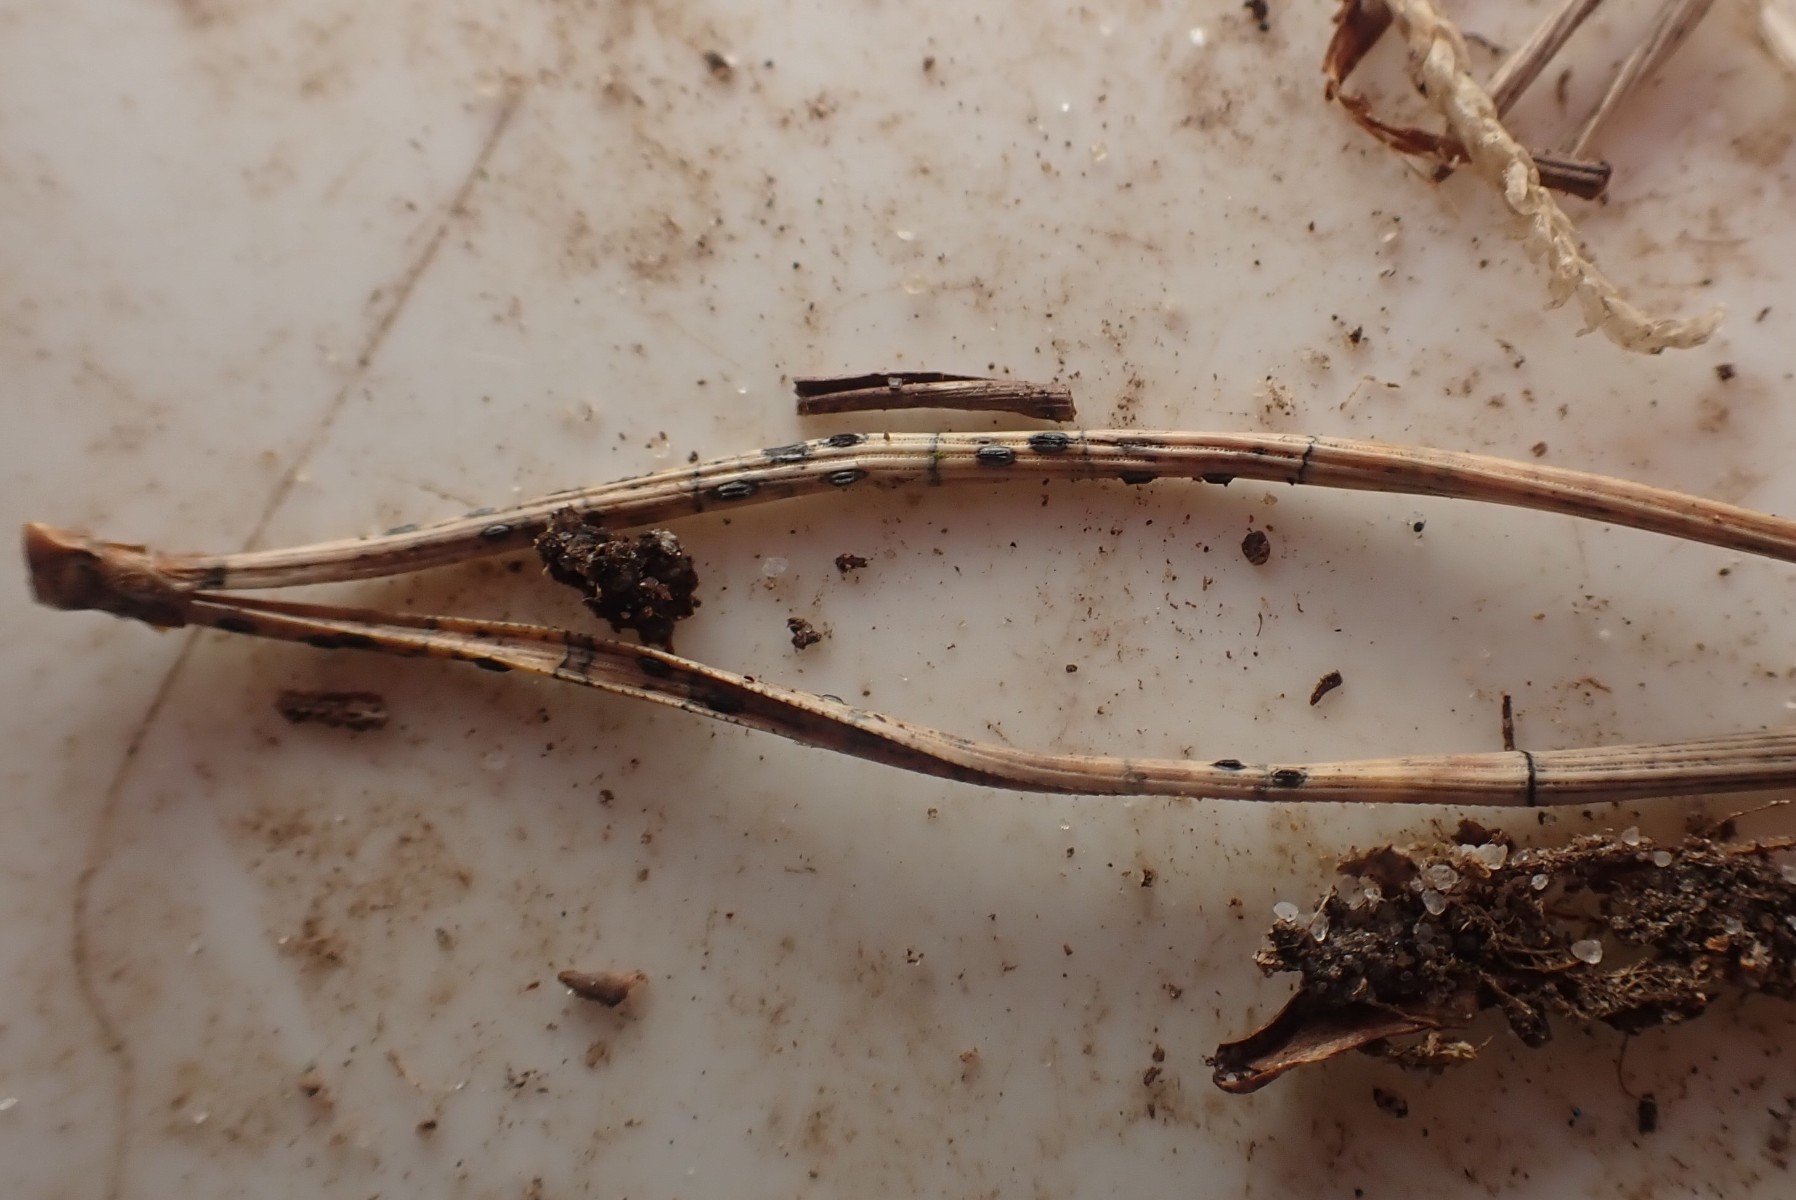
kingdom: Fungi
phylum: Ascomycota
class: Leotiomycetes
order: Rhytismatales
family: Rhytismataceae
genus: Lophodermium
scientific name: Lophodermium pinastri
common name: fyrre-fureplet
